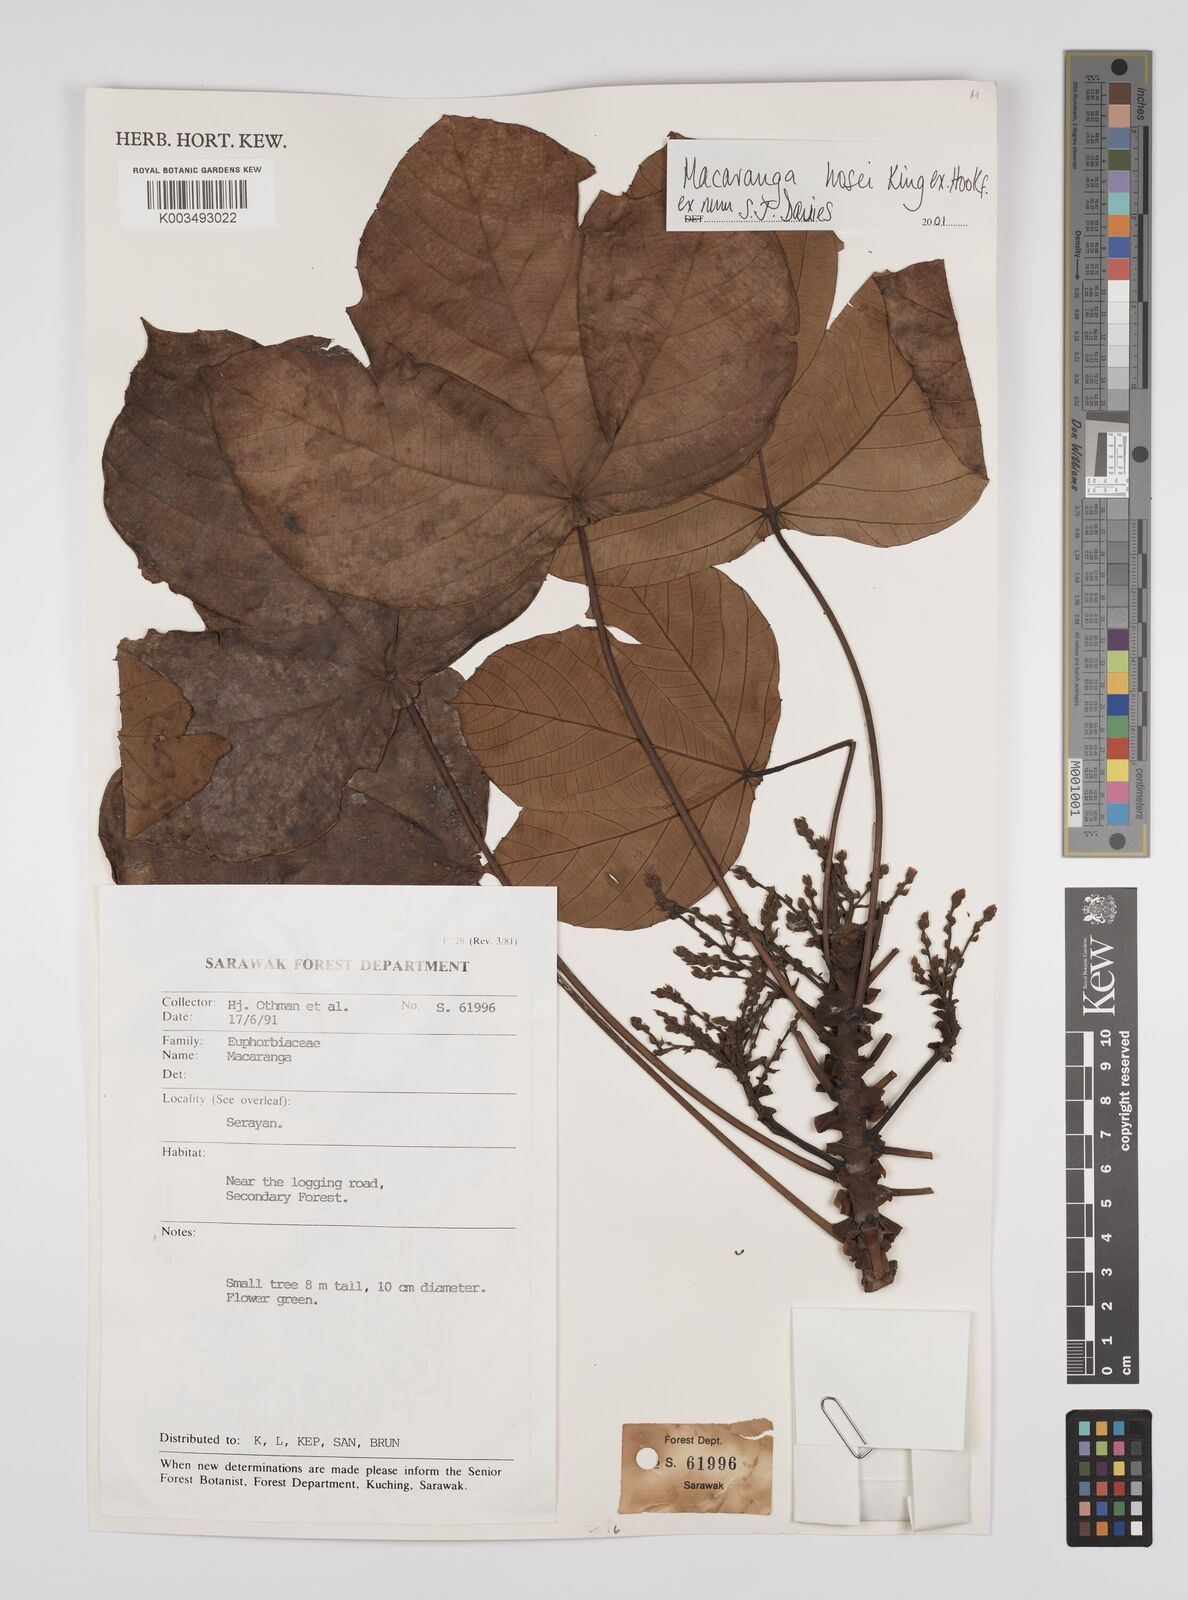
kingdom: Plantae
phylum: Tracheophyta
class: Magnoliopsida
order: Malpighiales
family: Euphorbiaceae
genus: Macaranga
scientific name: Macaranga hosei
